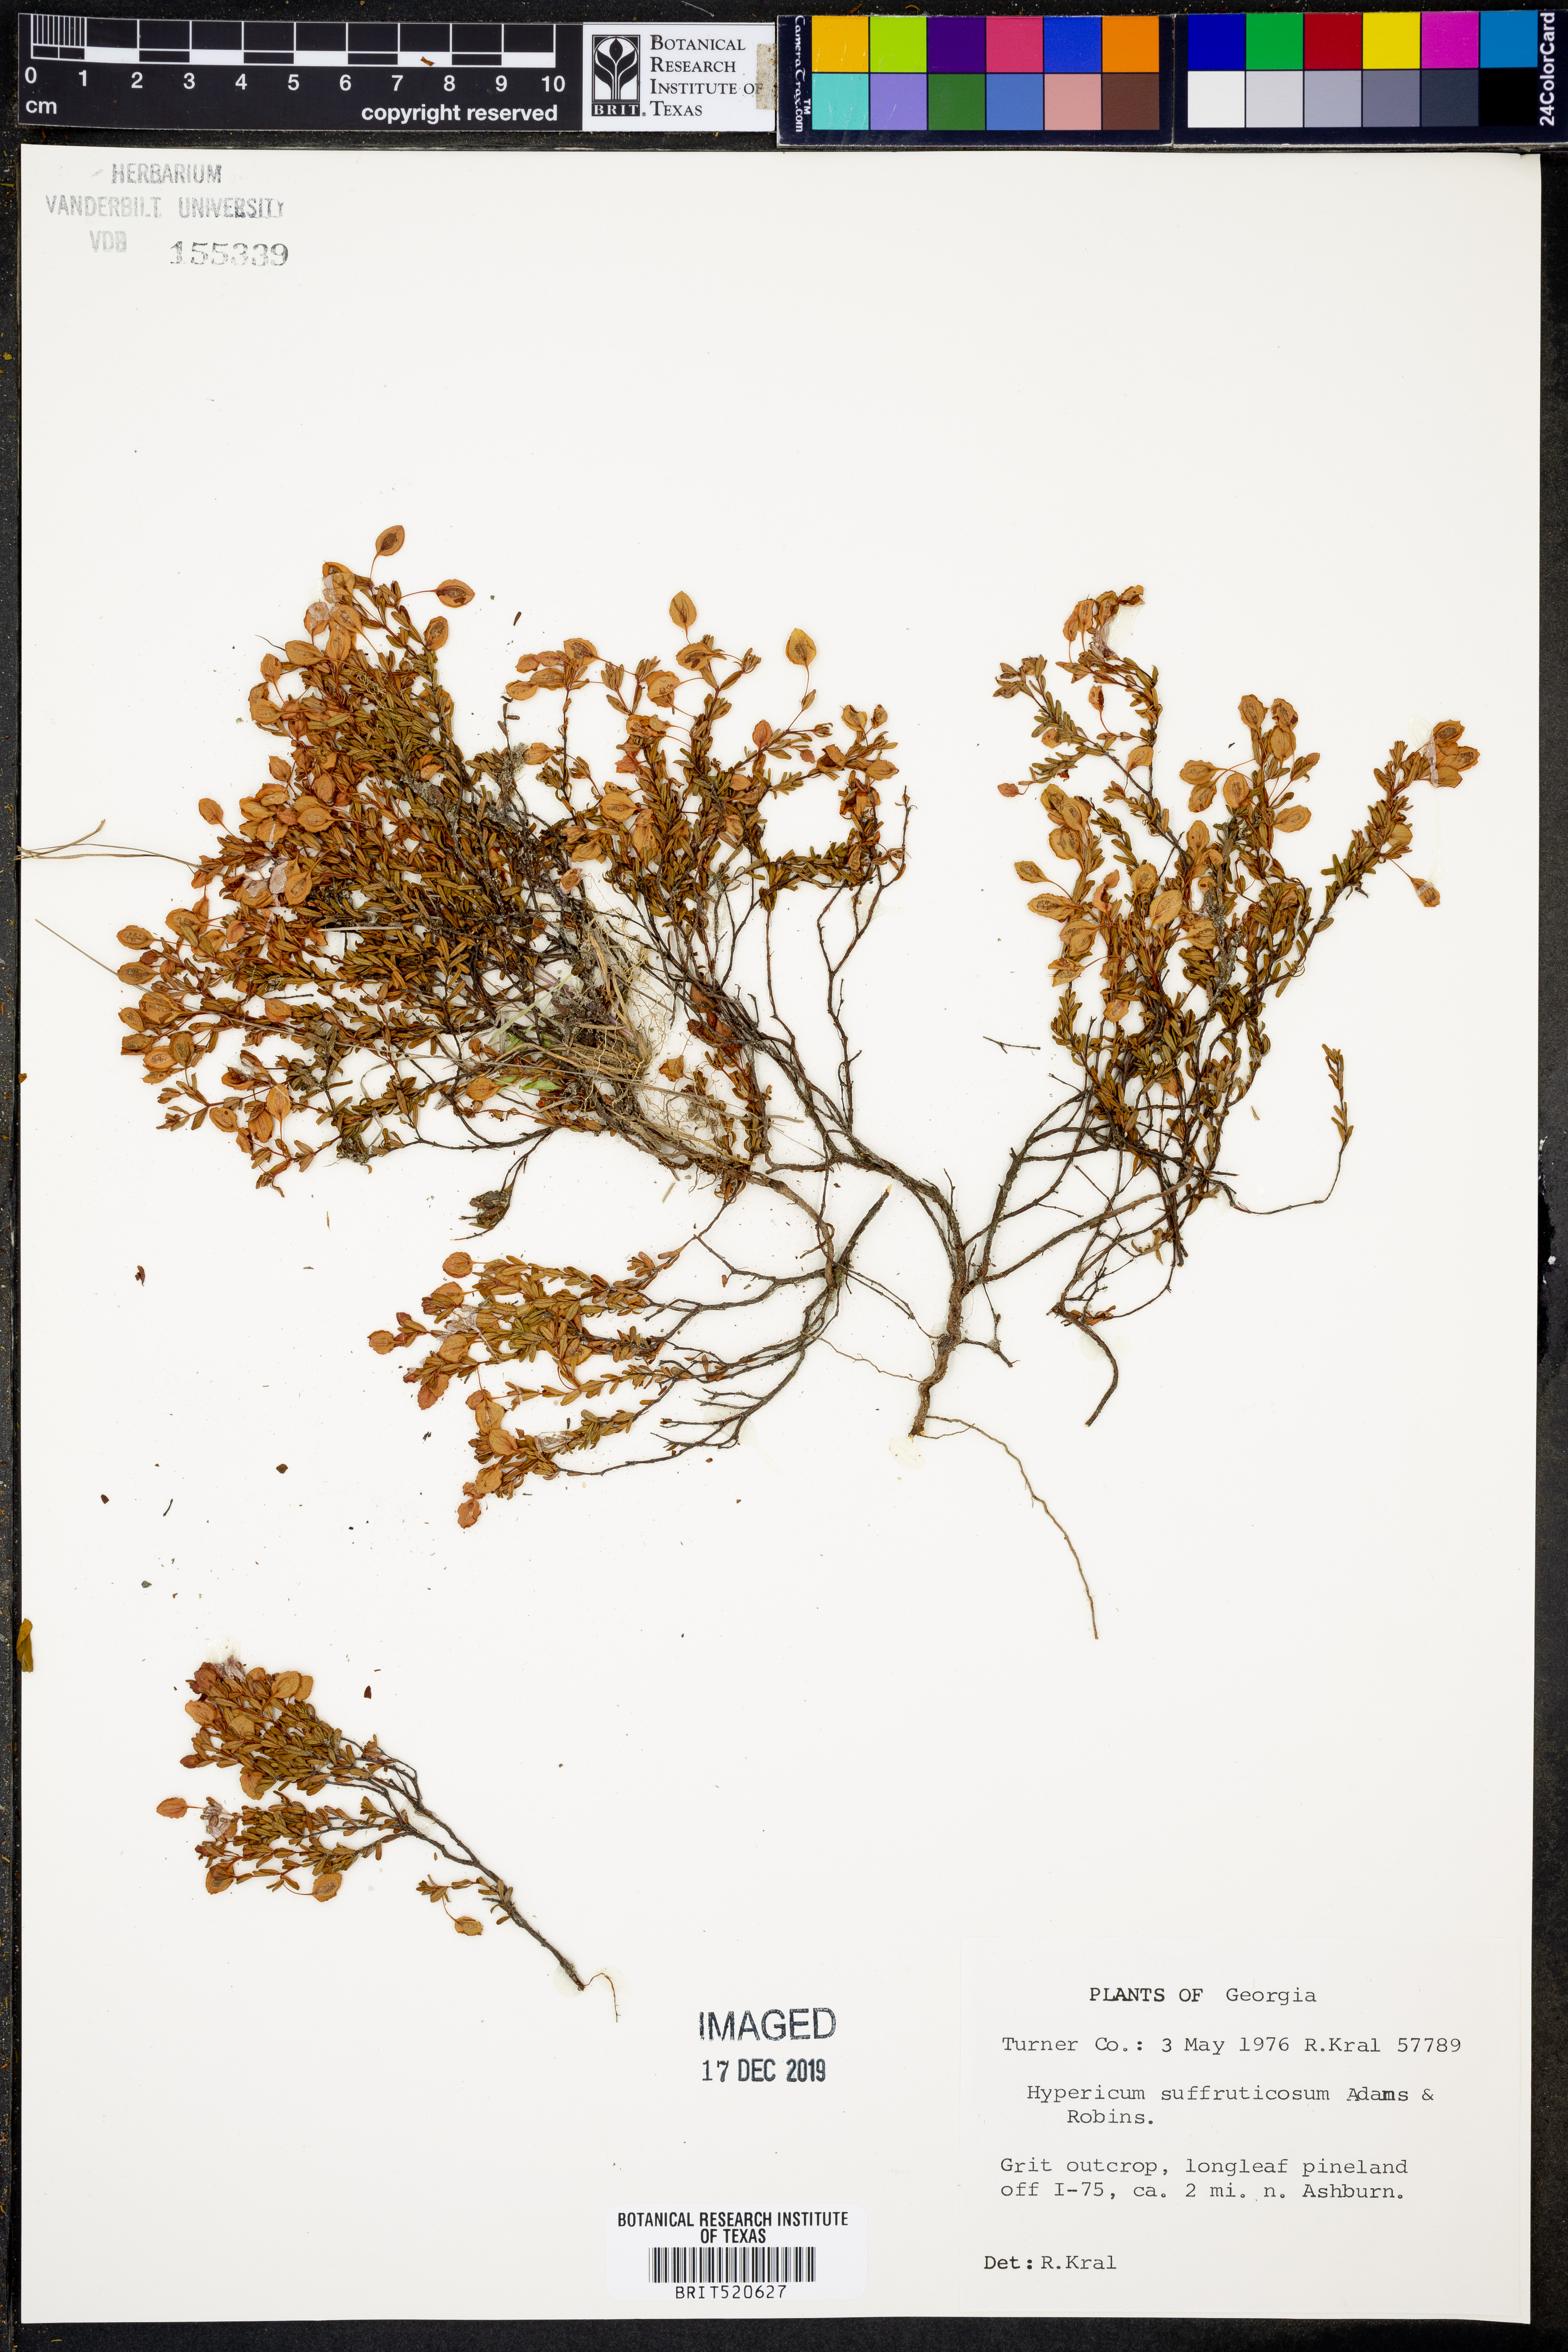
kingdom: Plantae
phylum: Tracheophyta
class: Magnoliopsida
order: Malpighiales
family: Hypericaceae
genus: Hypericum
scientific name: Hypericum suffruticosum
